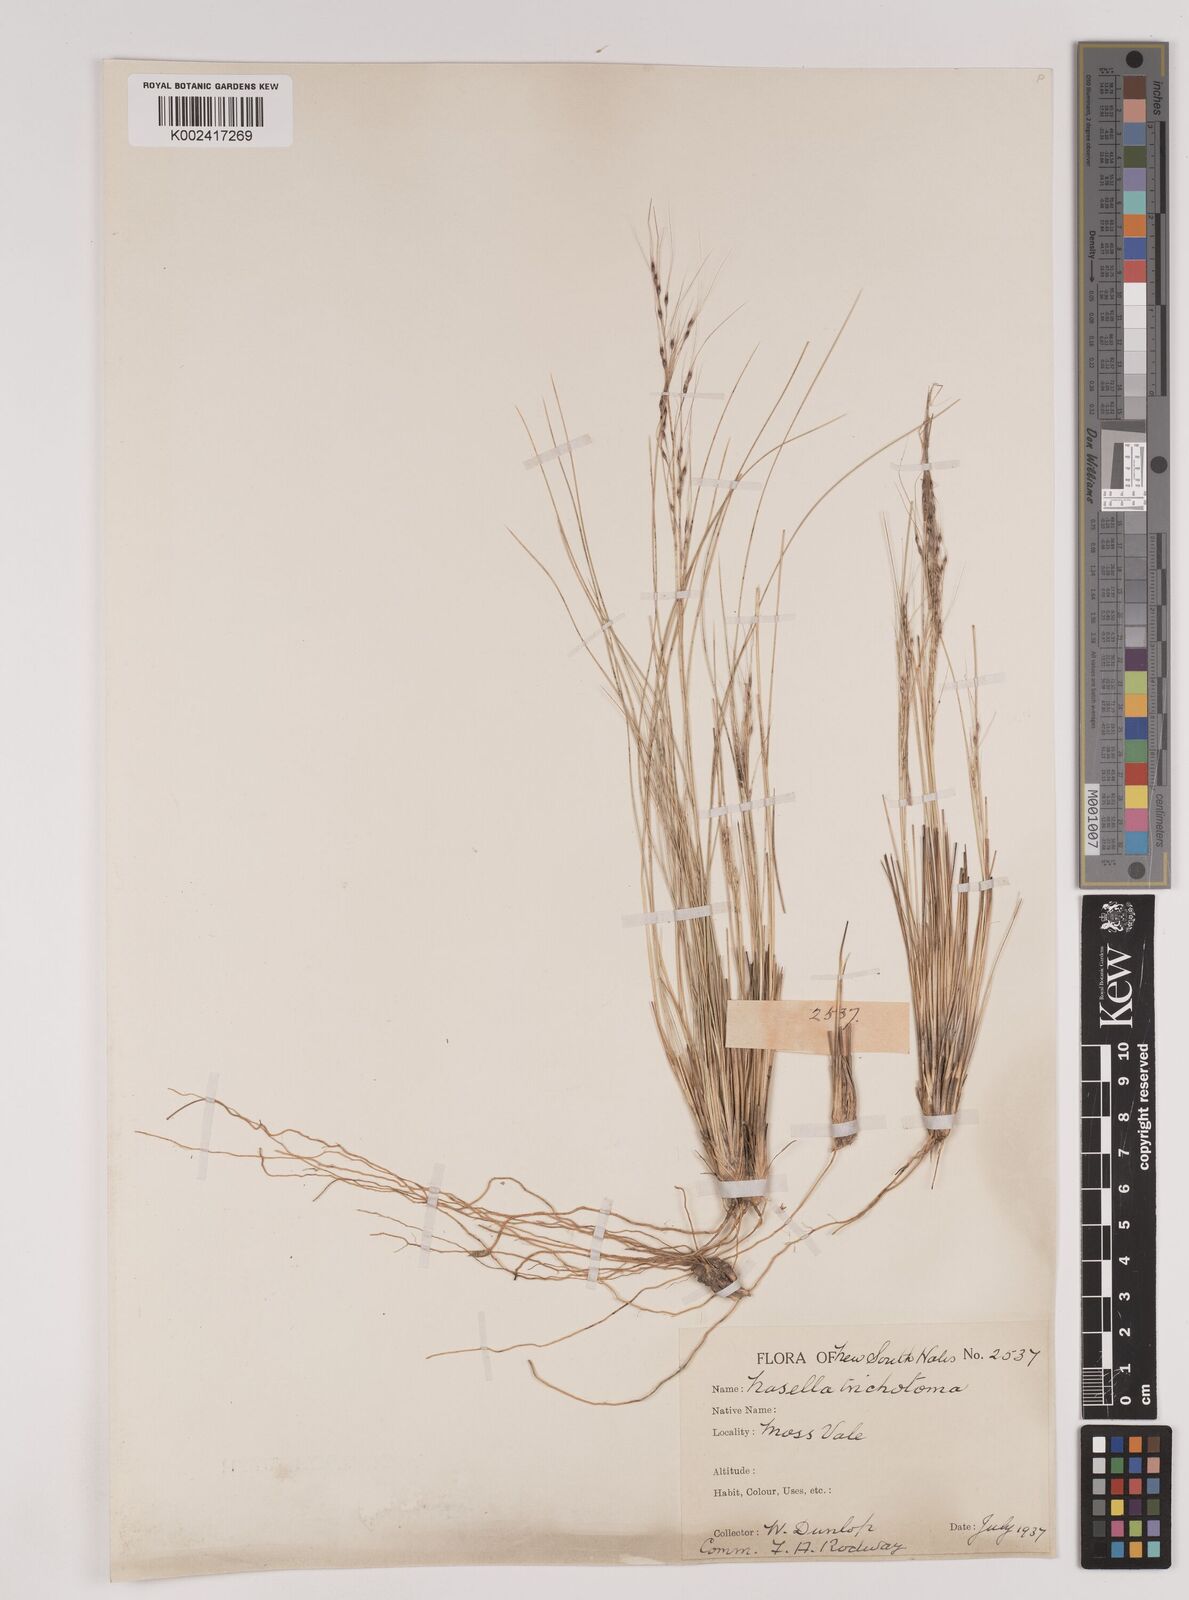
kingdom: Plantae
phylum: Tracheophyta
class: Liliopsida
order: Poales
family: Poaceae
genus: Nassella
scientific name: Nassella trichotoma
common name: Serrated tussock grass
